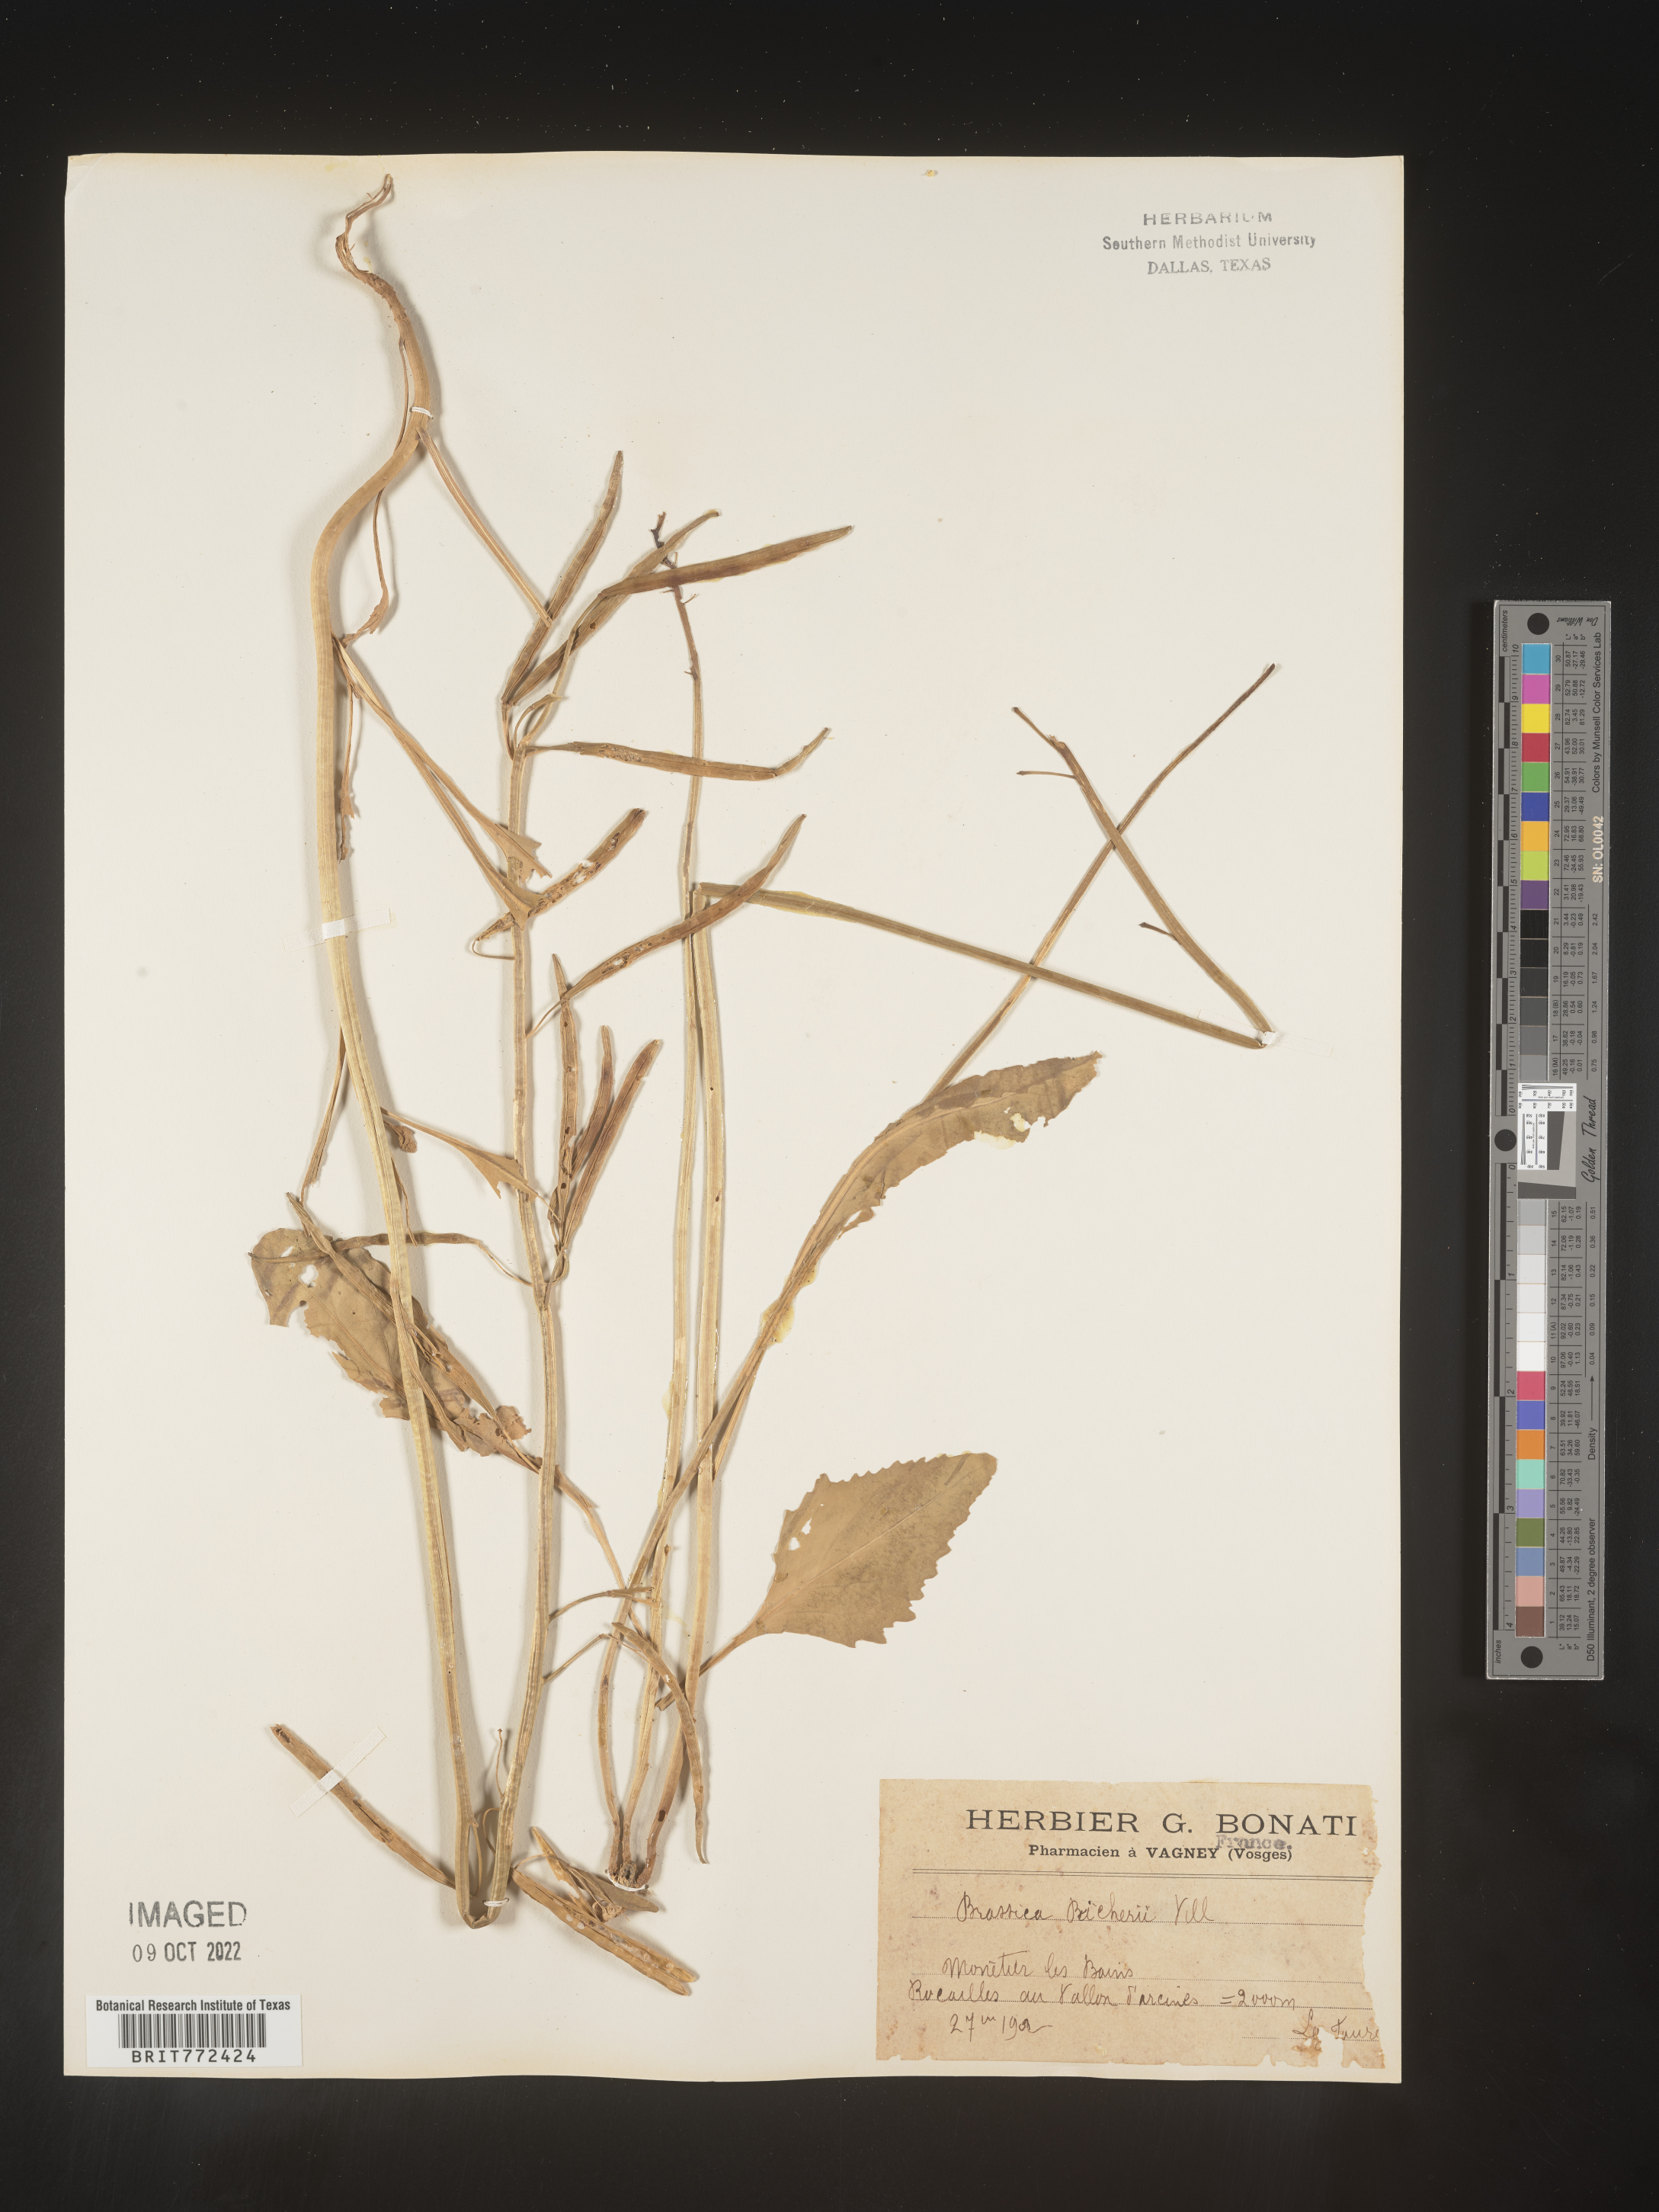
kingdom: Plantae
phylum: Tracheophyta
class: Magnoliopsida
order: Brassicales
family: Brassicaceae
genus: Brassica
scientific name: Brassica
